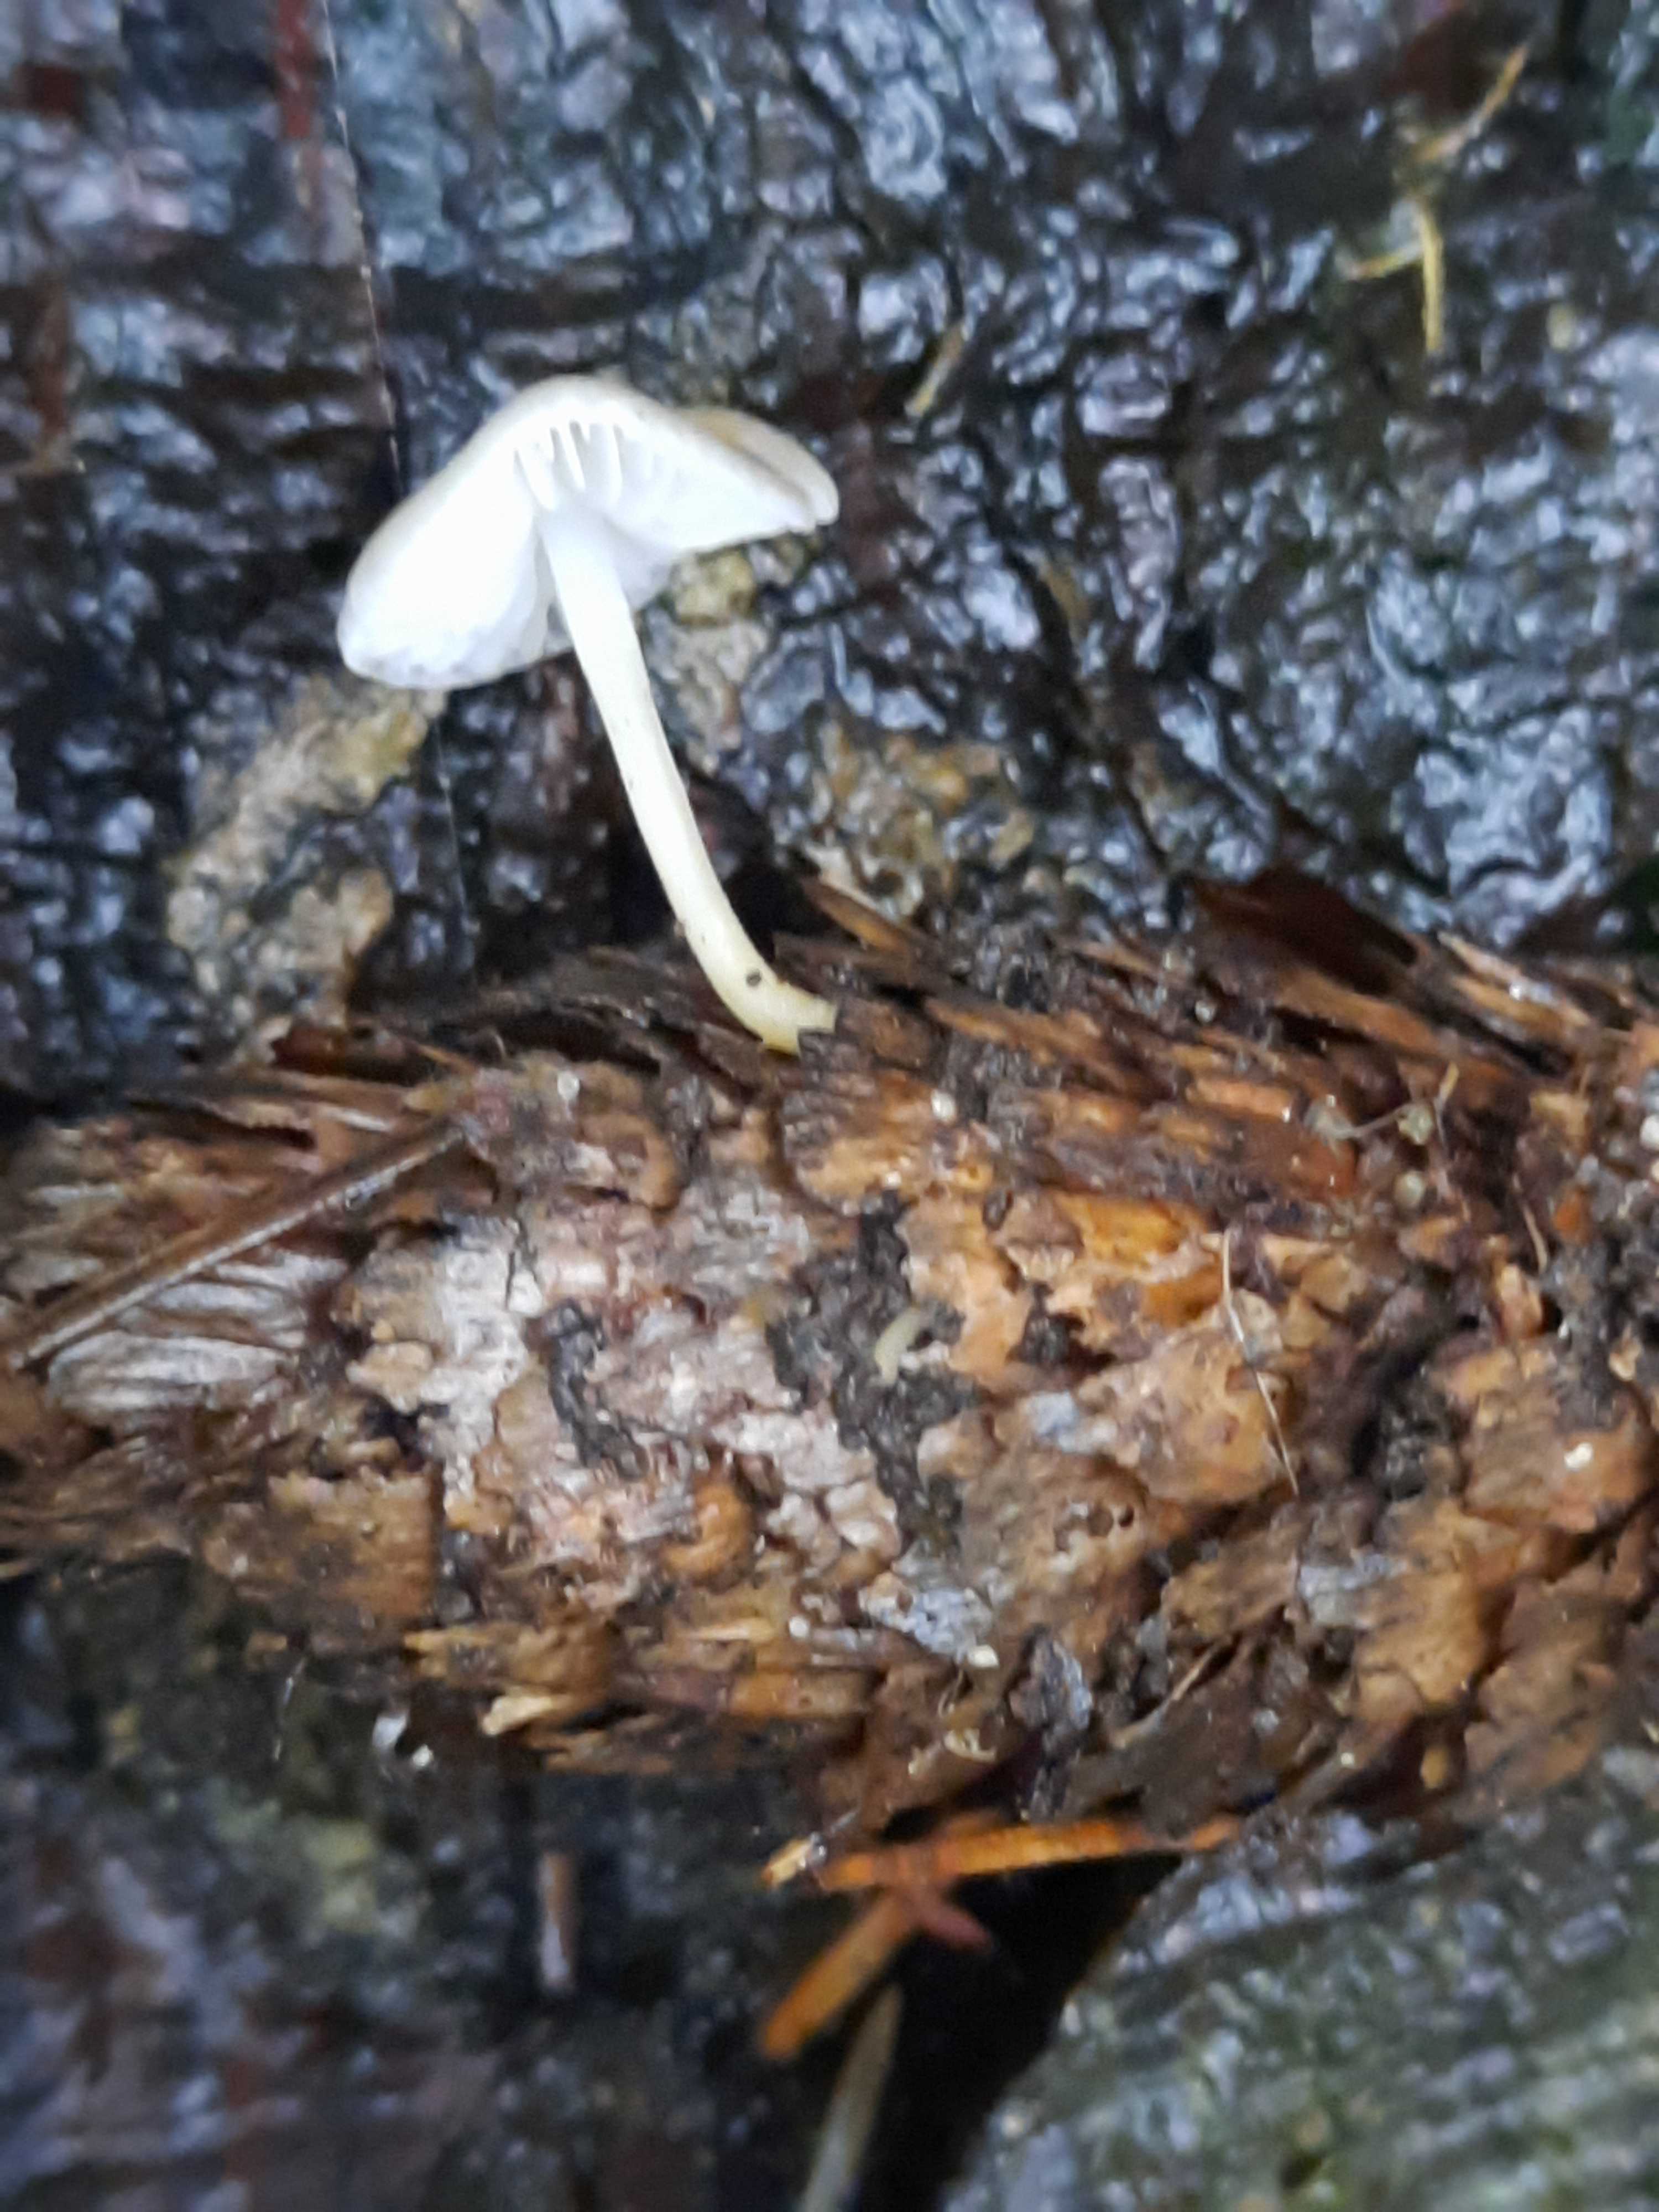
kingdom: Fungi
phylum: Basidiomycota
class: Agaricomycetes
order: Agaricales
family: Physalacriaceae
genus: Strobilurus
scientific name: Strobilurus esculentus
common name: gran-koglehat
